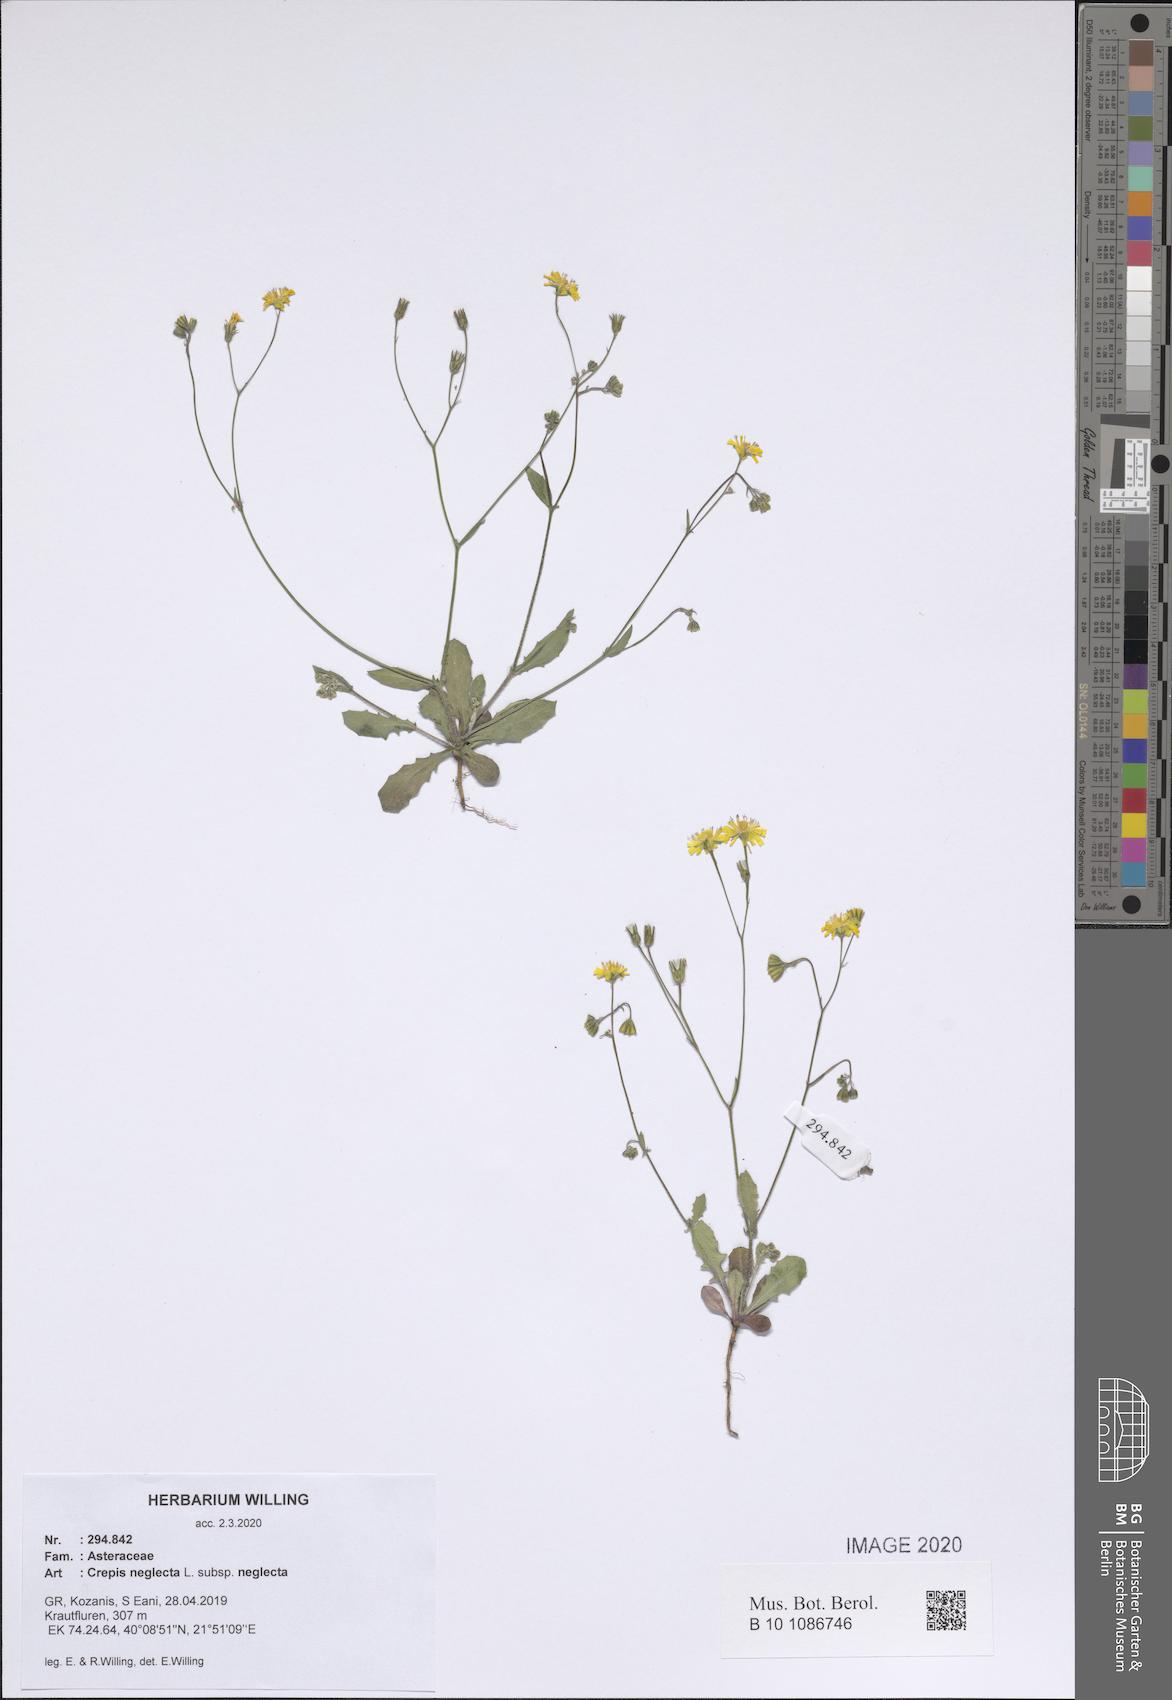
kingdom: Plantae
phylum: Tracheophyta
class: Magnoliopsida
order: Asterales
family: Asteraceae
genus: Crepis
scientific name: Crepis neglecta
